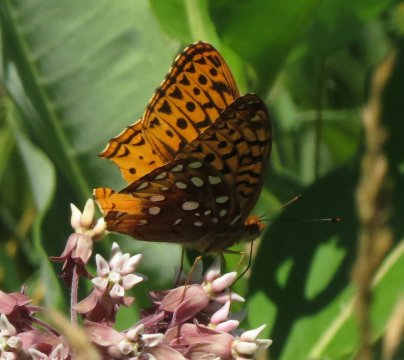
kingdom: Animalia
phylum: Arthropoda
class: Insecta
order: Lepidoptera
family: Nymphalidae
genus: Speyeria
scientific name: Speyeria cybele
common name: Great Spangled Fritillary
